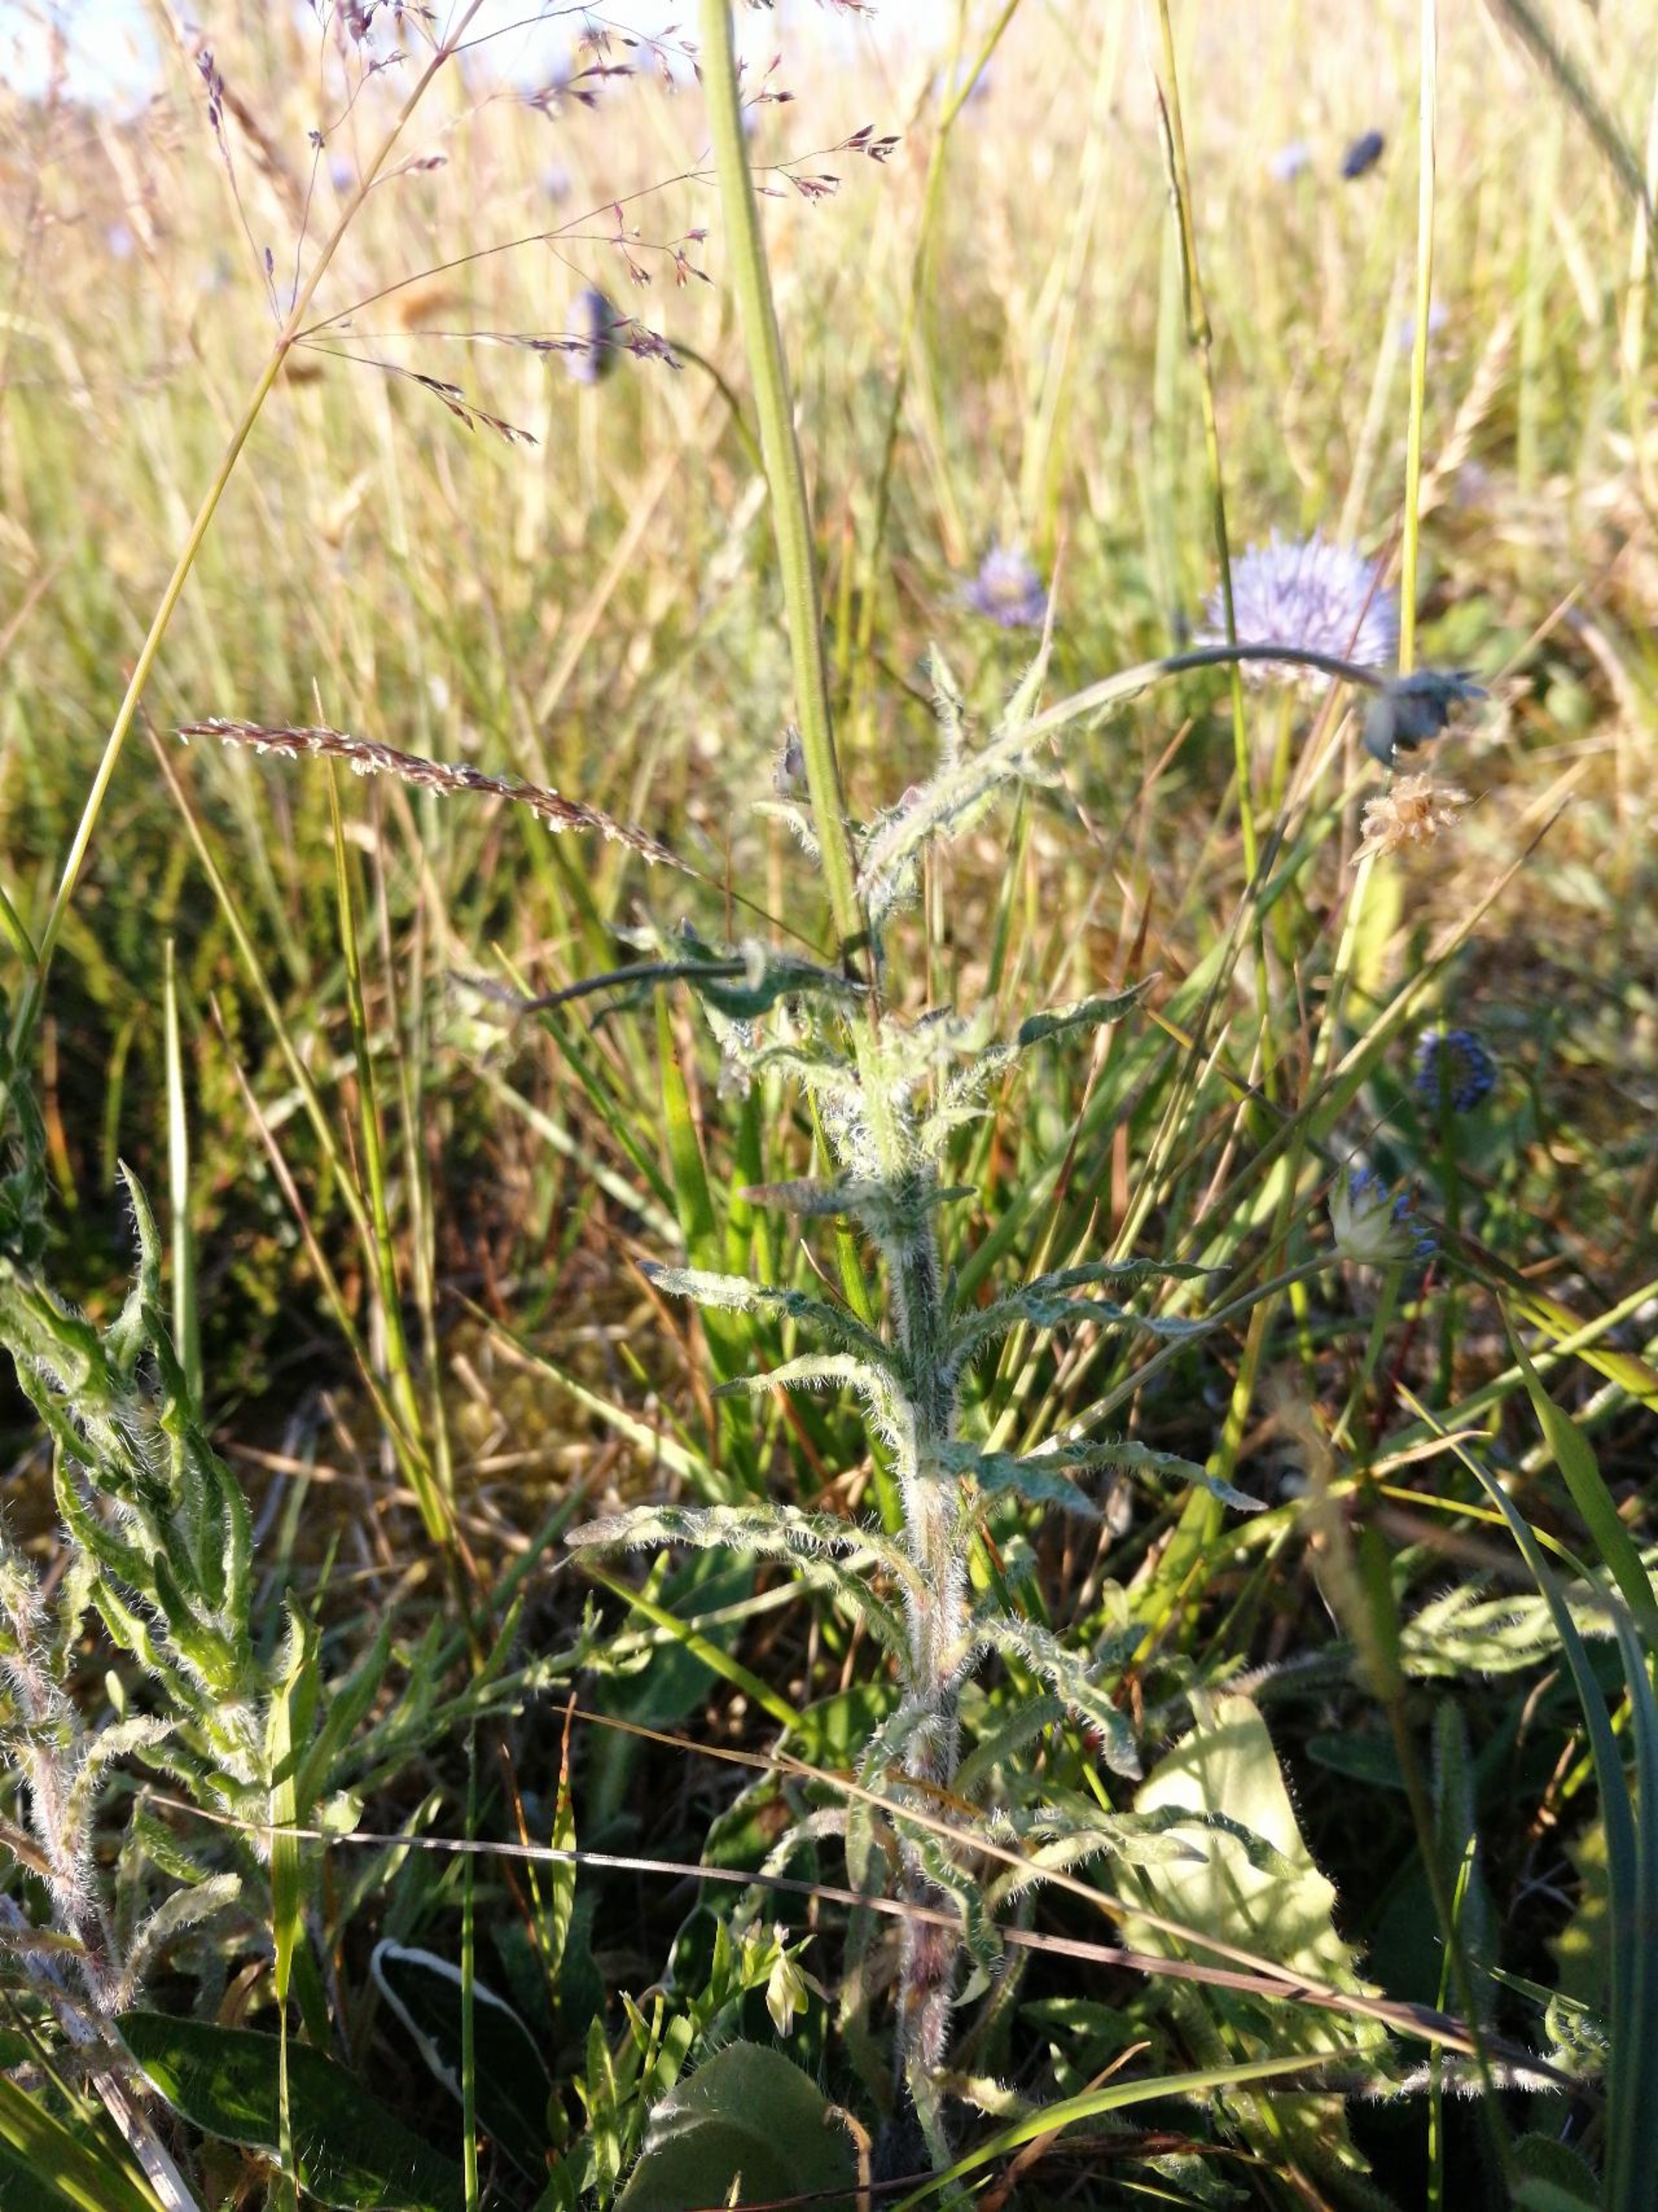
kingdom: Plantae
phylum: Tracheophyta
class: Magnoliopsida
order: Asterales
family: Campanulaceae
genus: Jasione
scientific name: Jasione montana
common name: Blåmunke
